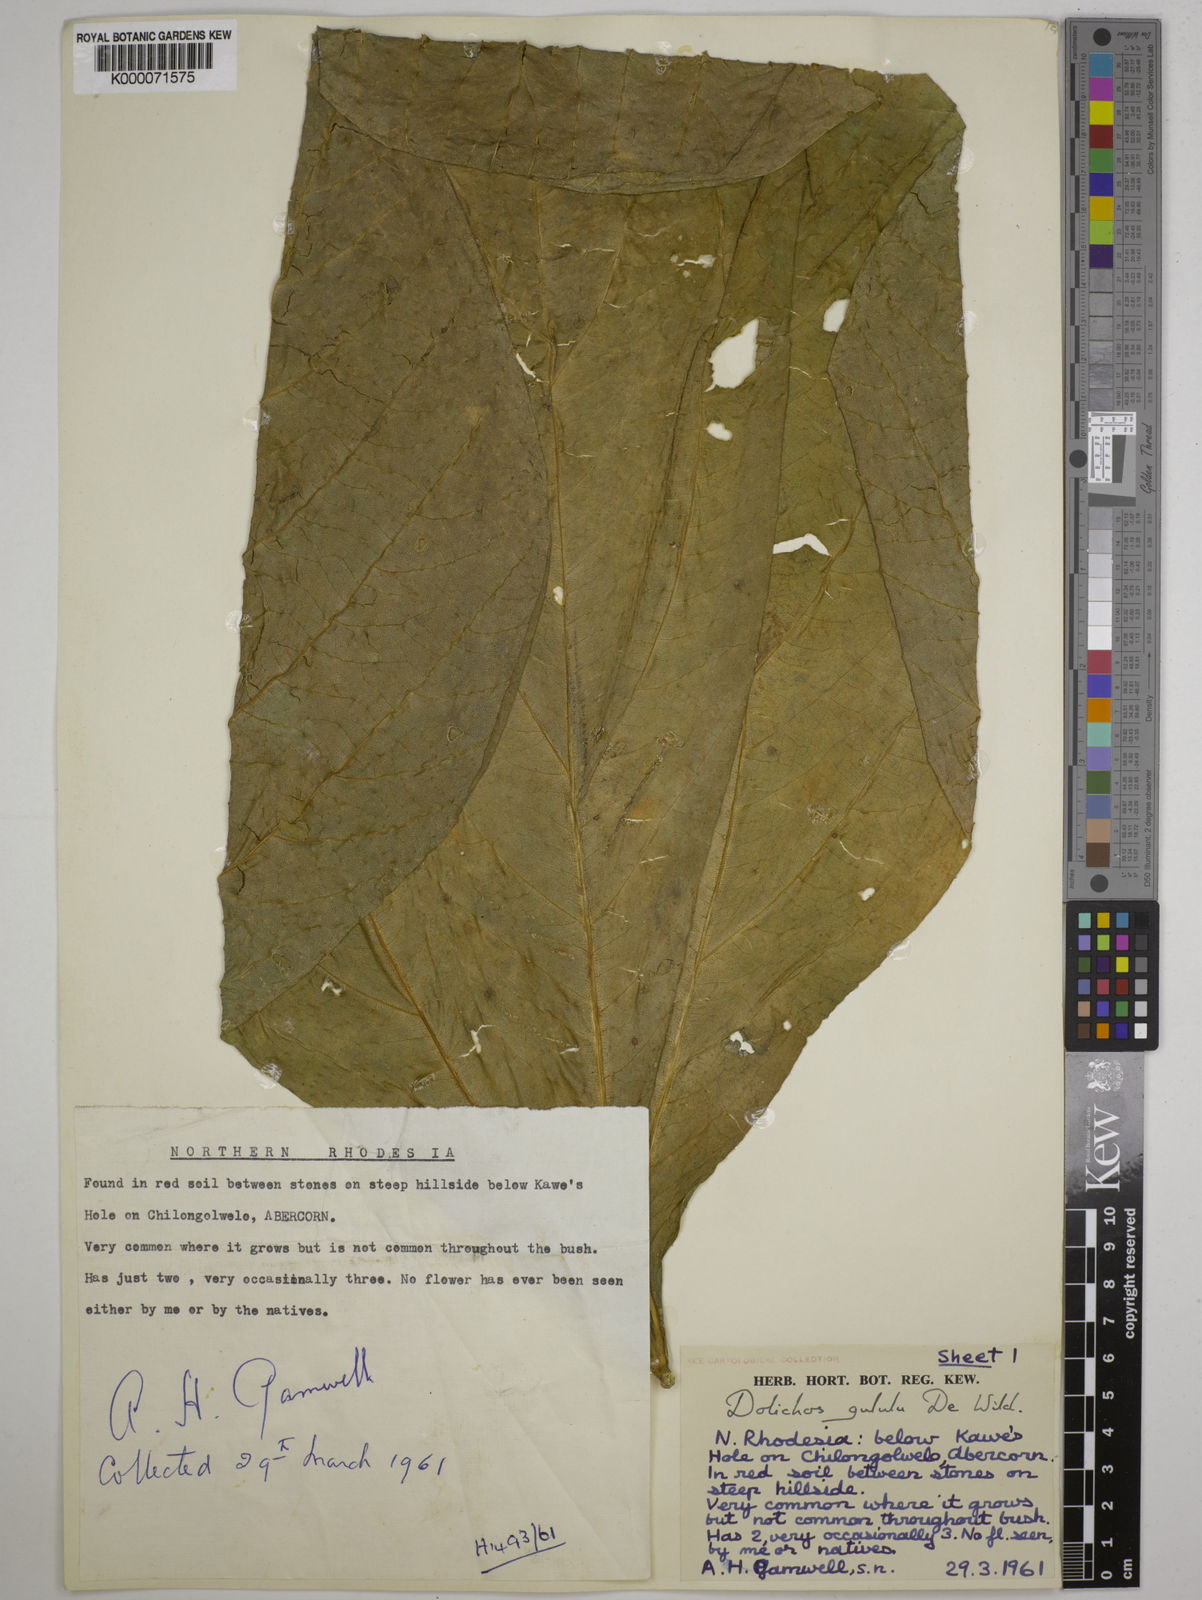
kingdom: Plantae
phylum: Tracheophyta
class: Magnoliopsida
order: Fabales
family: Fabaceae
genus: Dolichos
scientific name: Dolichos gululu
